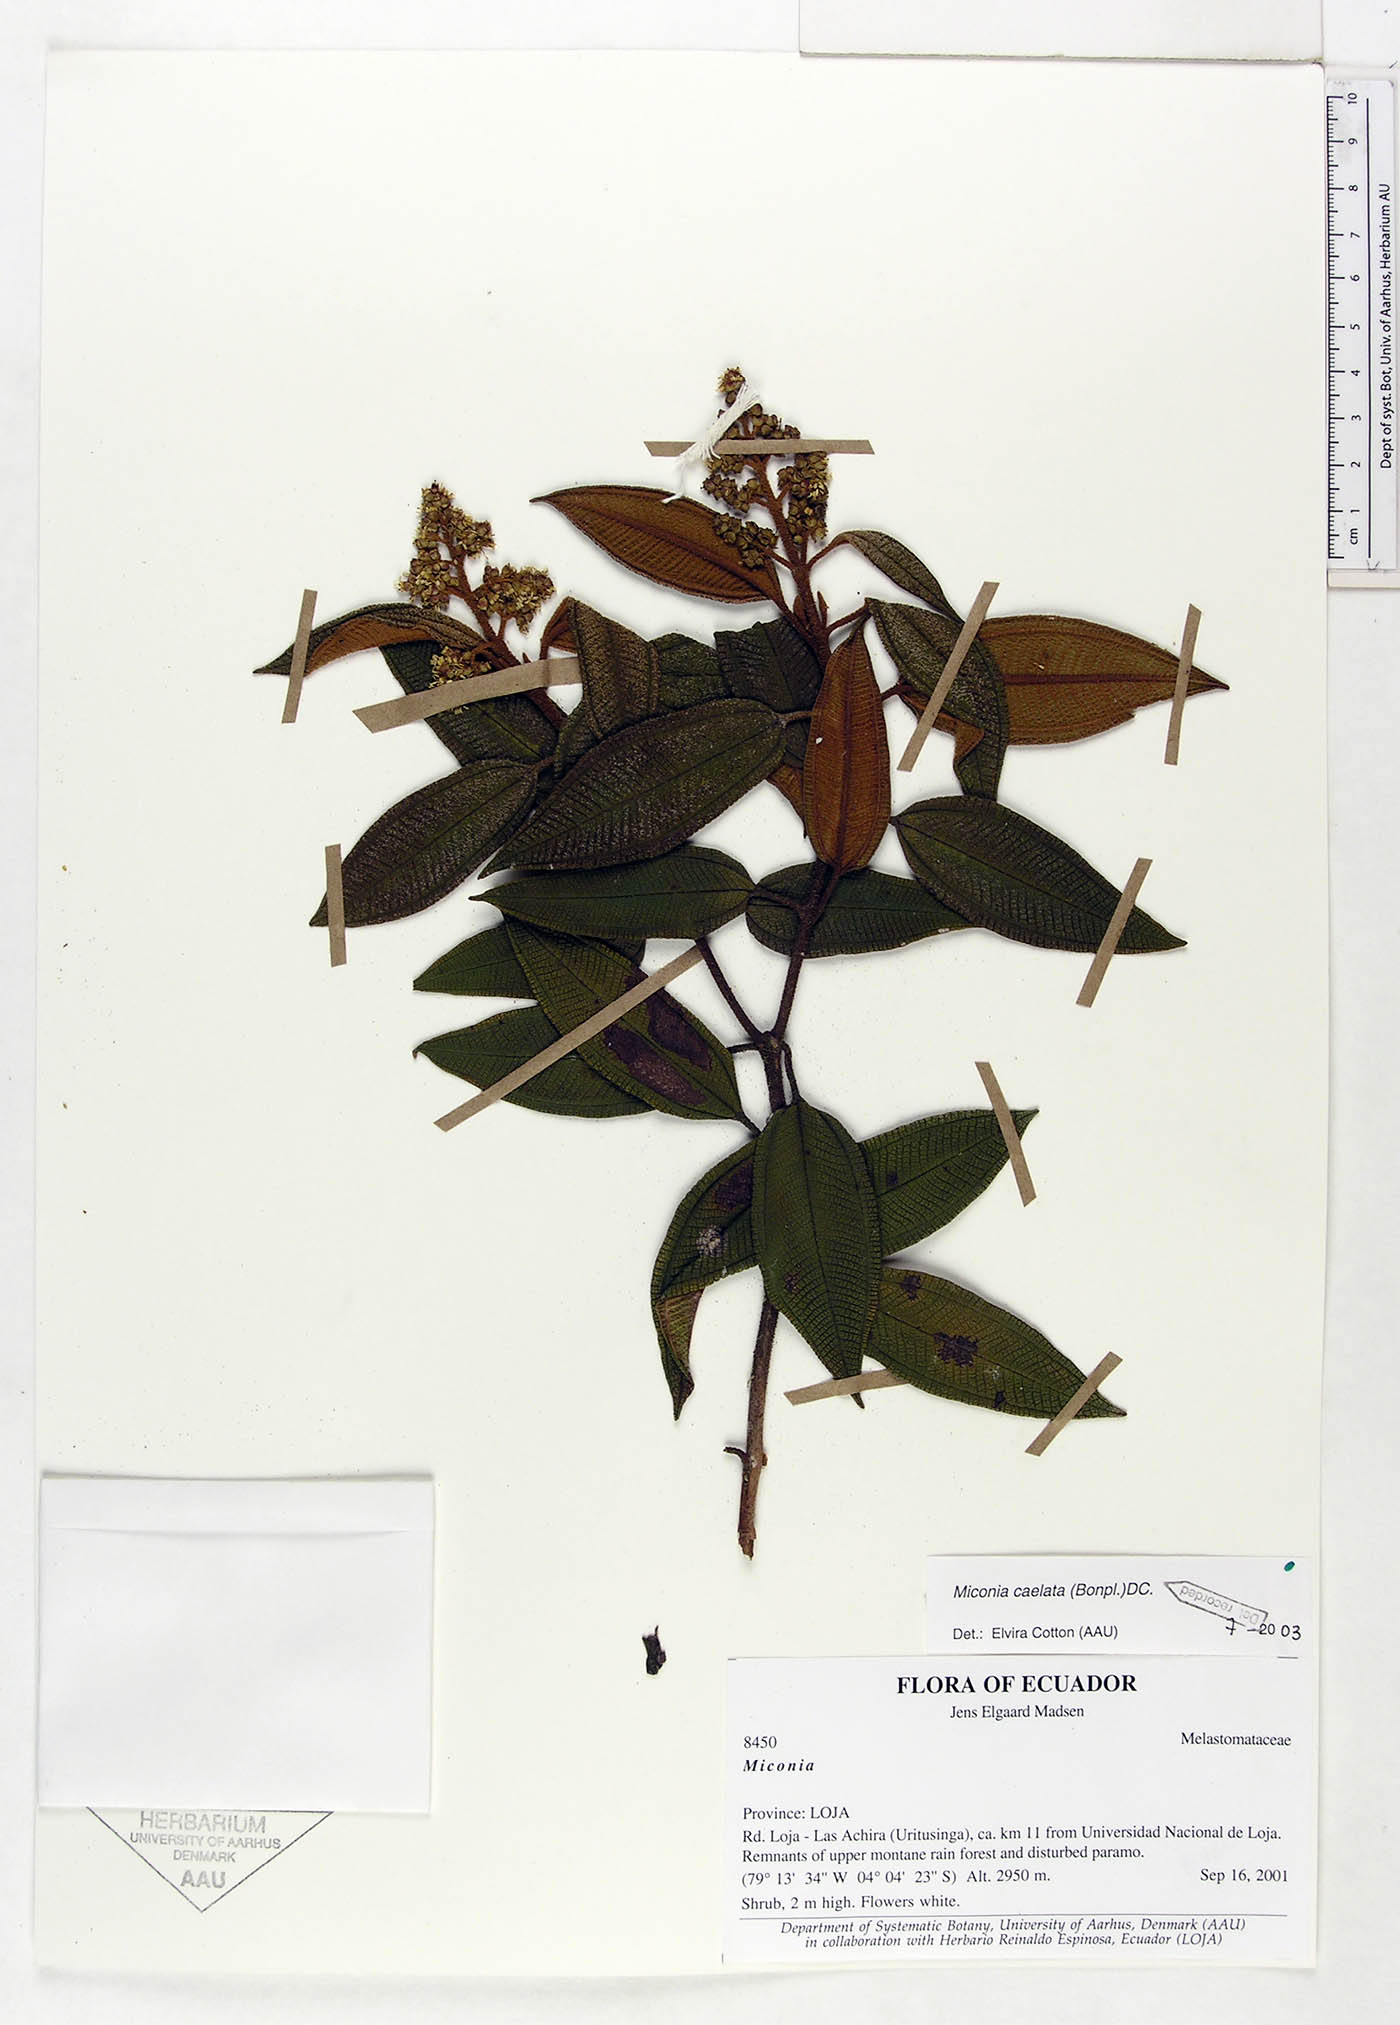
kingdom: Plantae
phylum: Tracheophyta
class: Magnoliopsida
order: Myrtales
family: Melastomataceae
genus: Miconia
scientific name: Miconia caelata
